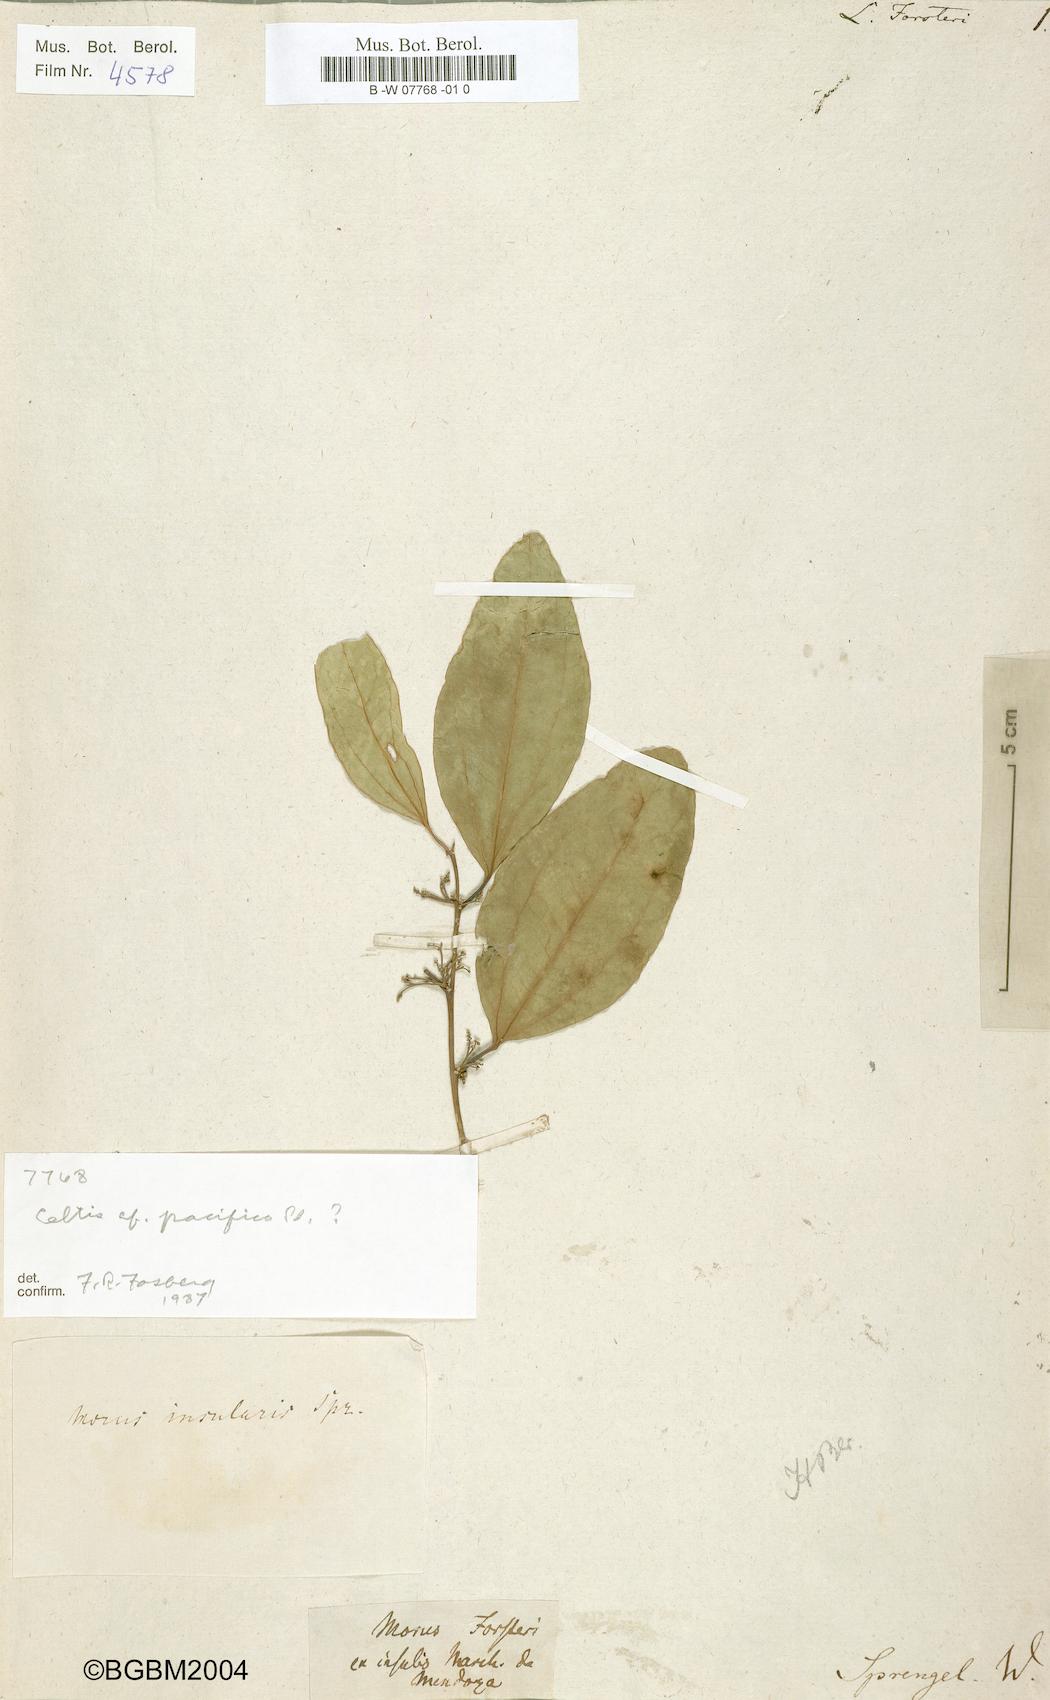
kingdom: Plantae
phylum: Tracheophyta
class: Magnoliopsida
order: Laurales
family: Lauraceae
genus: Laurus
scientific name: Laurus
